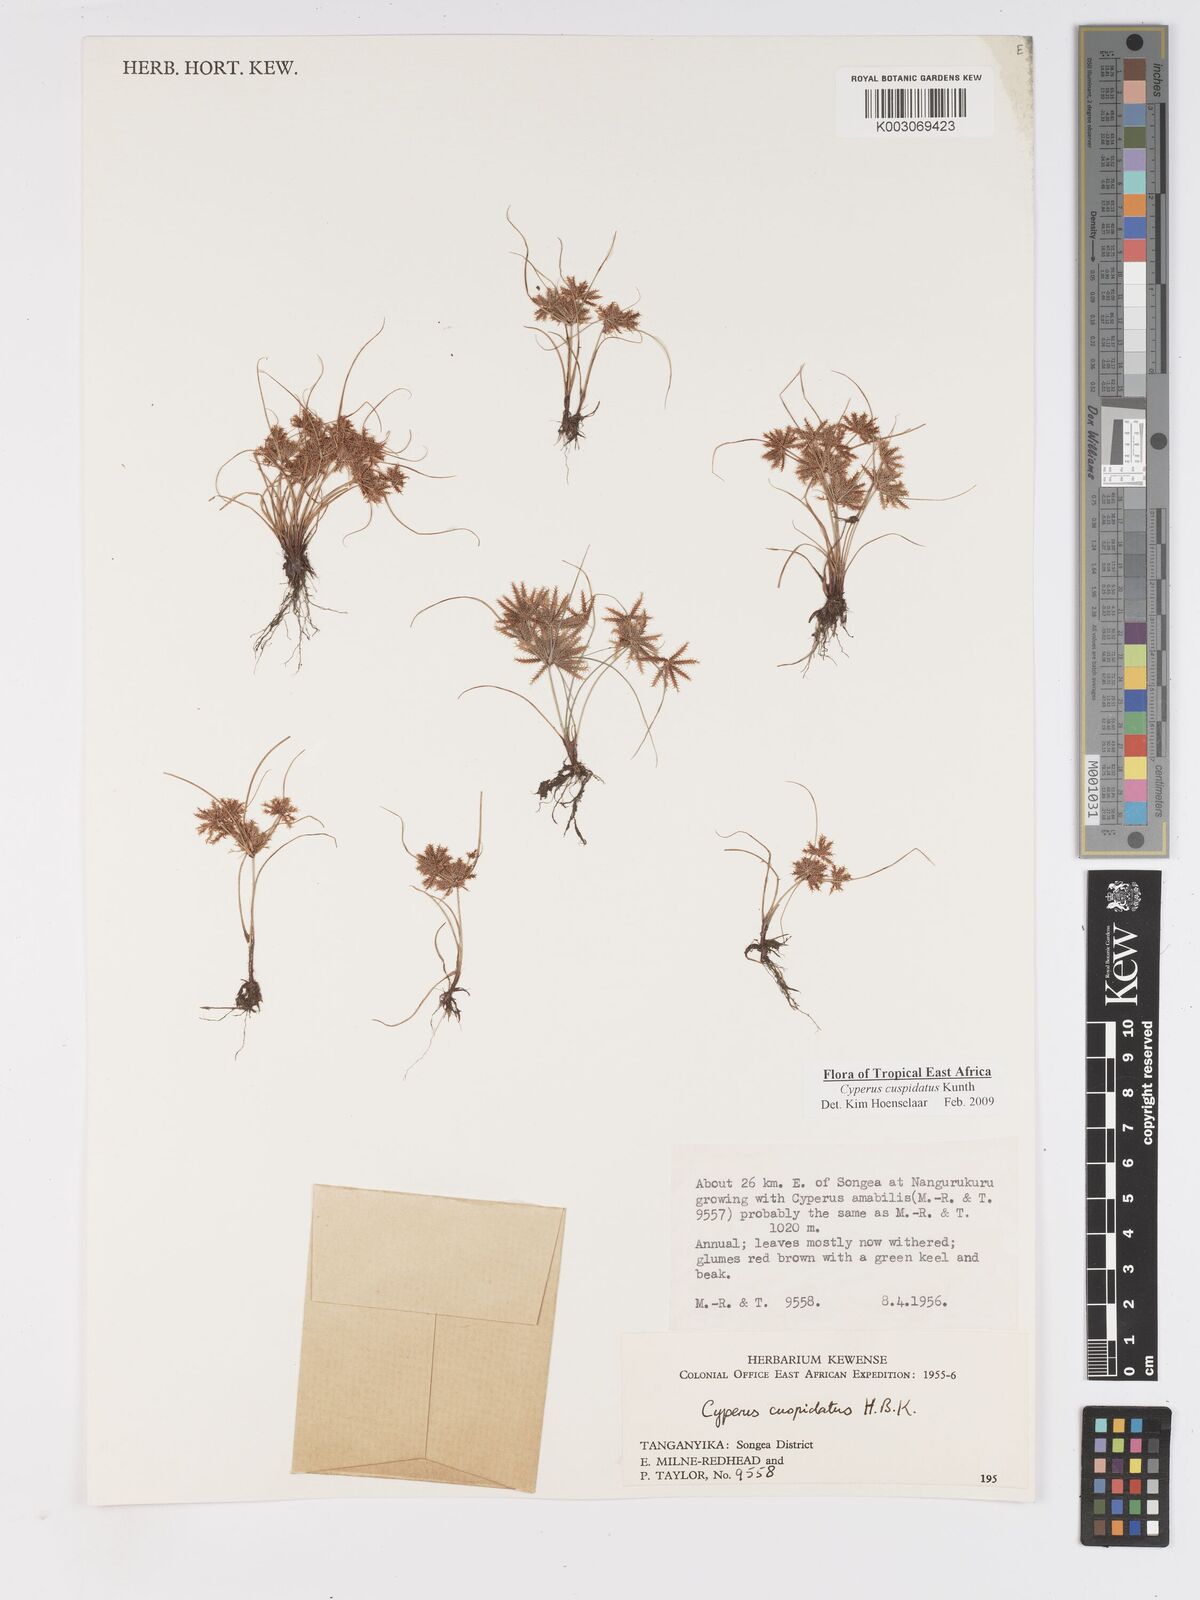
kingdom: Plantae
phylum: Tracheophyta
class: Liliopsida
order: Poales
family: Cyperaceae
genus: Cyperus
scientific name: Cyperus cuspidatus
